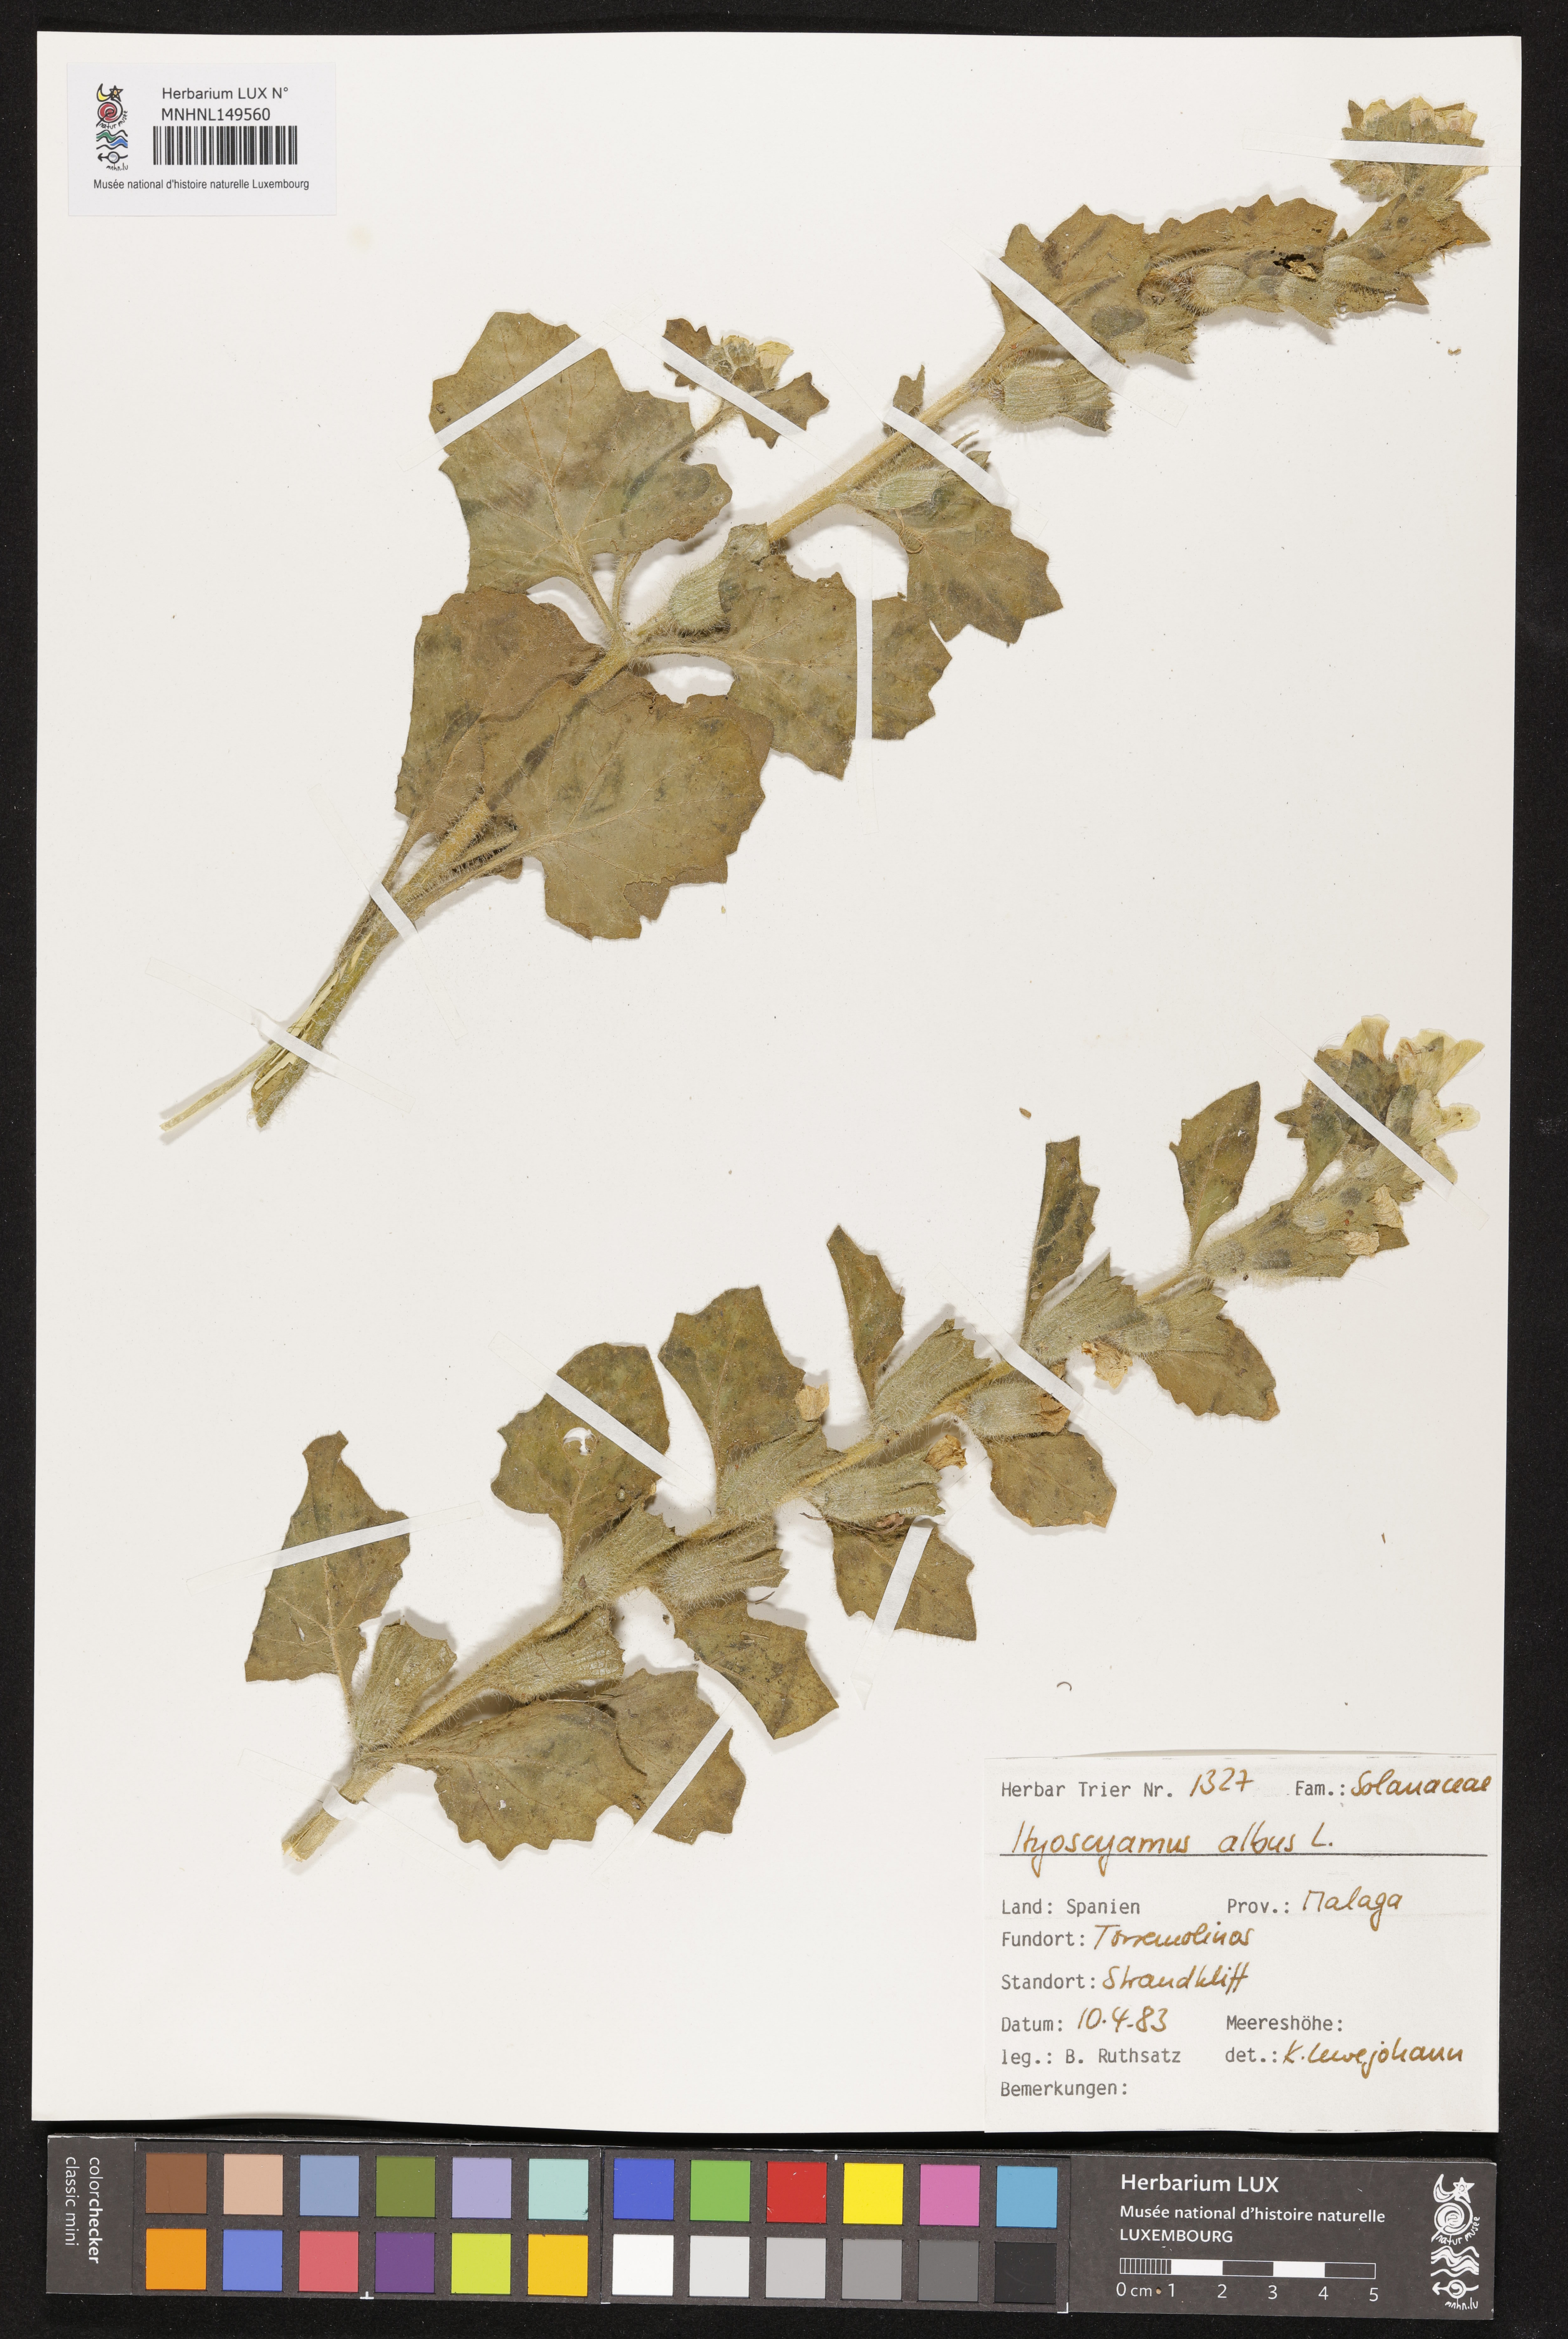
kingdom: Plantae
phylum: Tracheophyta
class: Magnoliopsida
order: Solanales
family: Solanaceae
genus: Hyoscyamus
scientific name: Hyoscyamus albus
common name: White henbane
